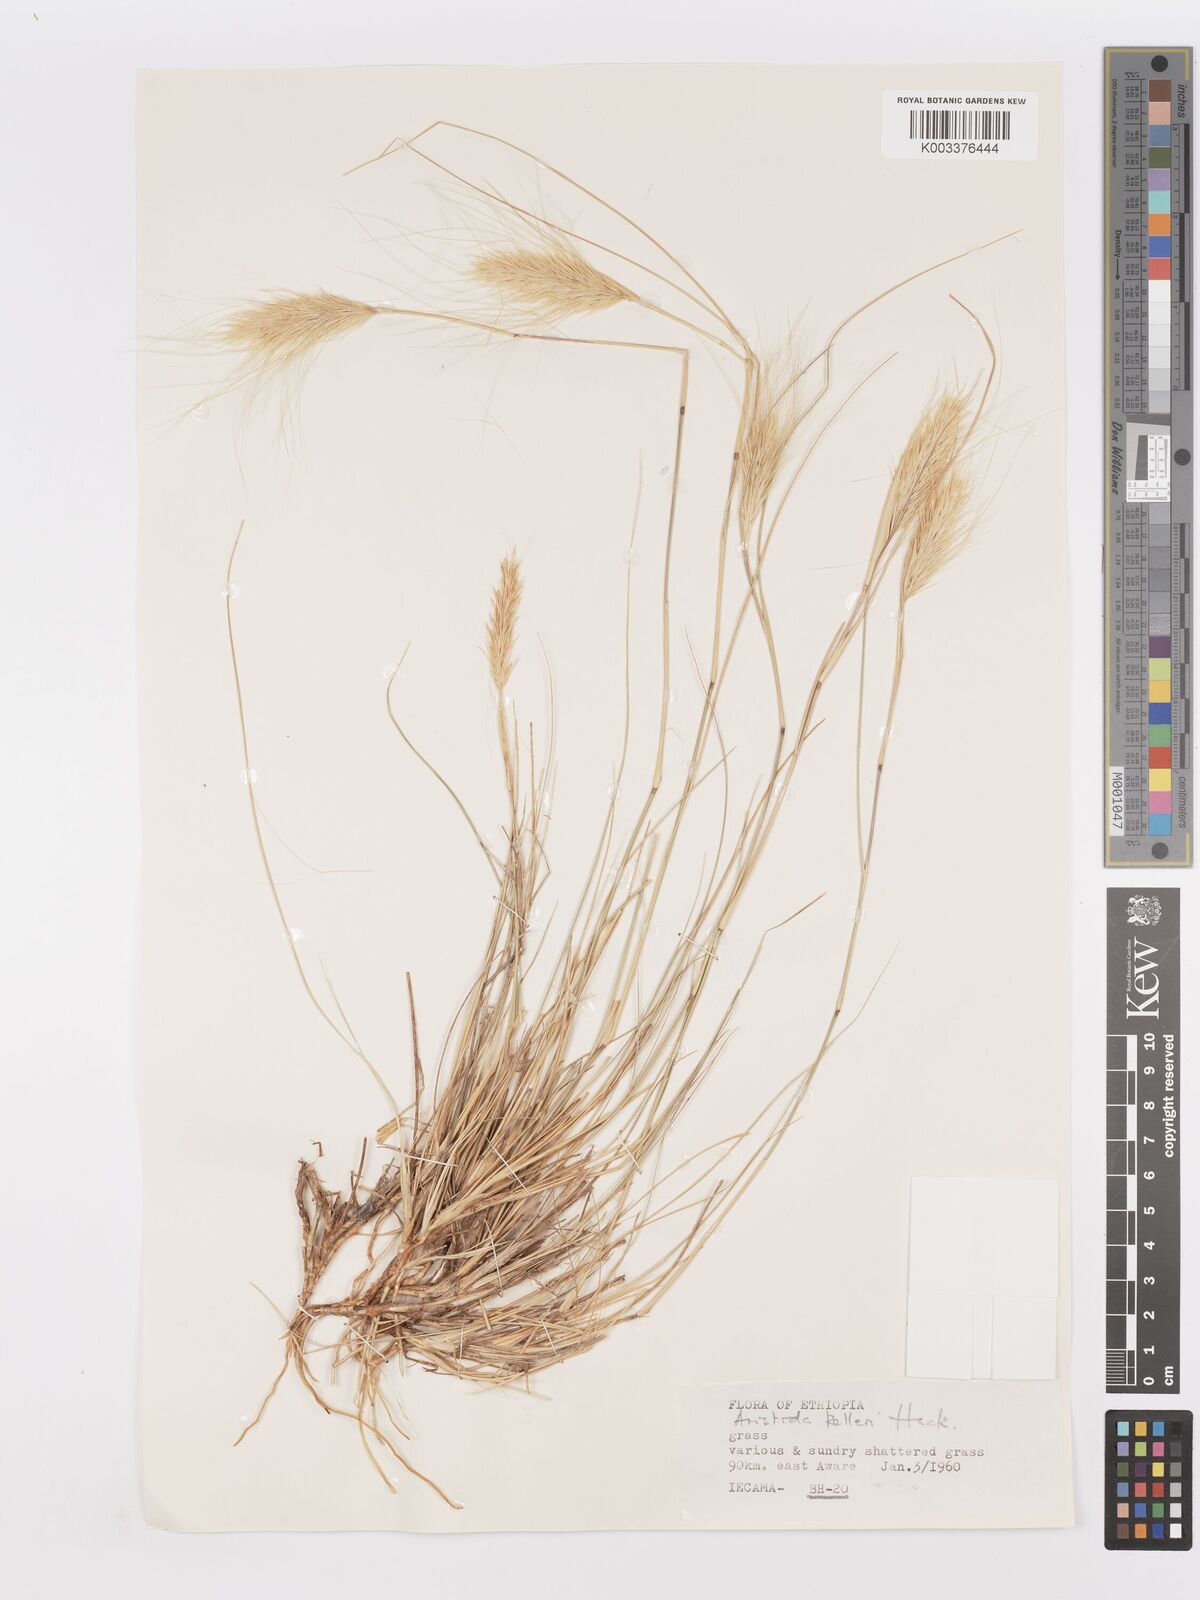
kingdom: Plantae
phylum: Tracheophyta
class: Liliopsida
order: Poales
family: Poaceae
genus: Aristida
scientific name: Aristida kelleri
